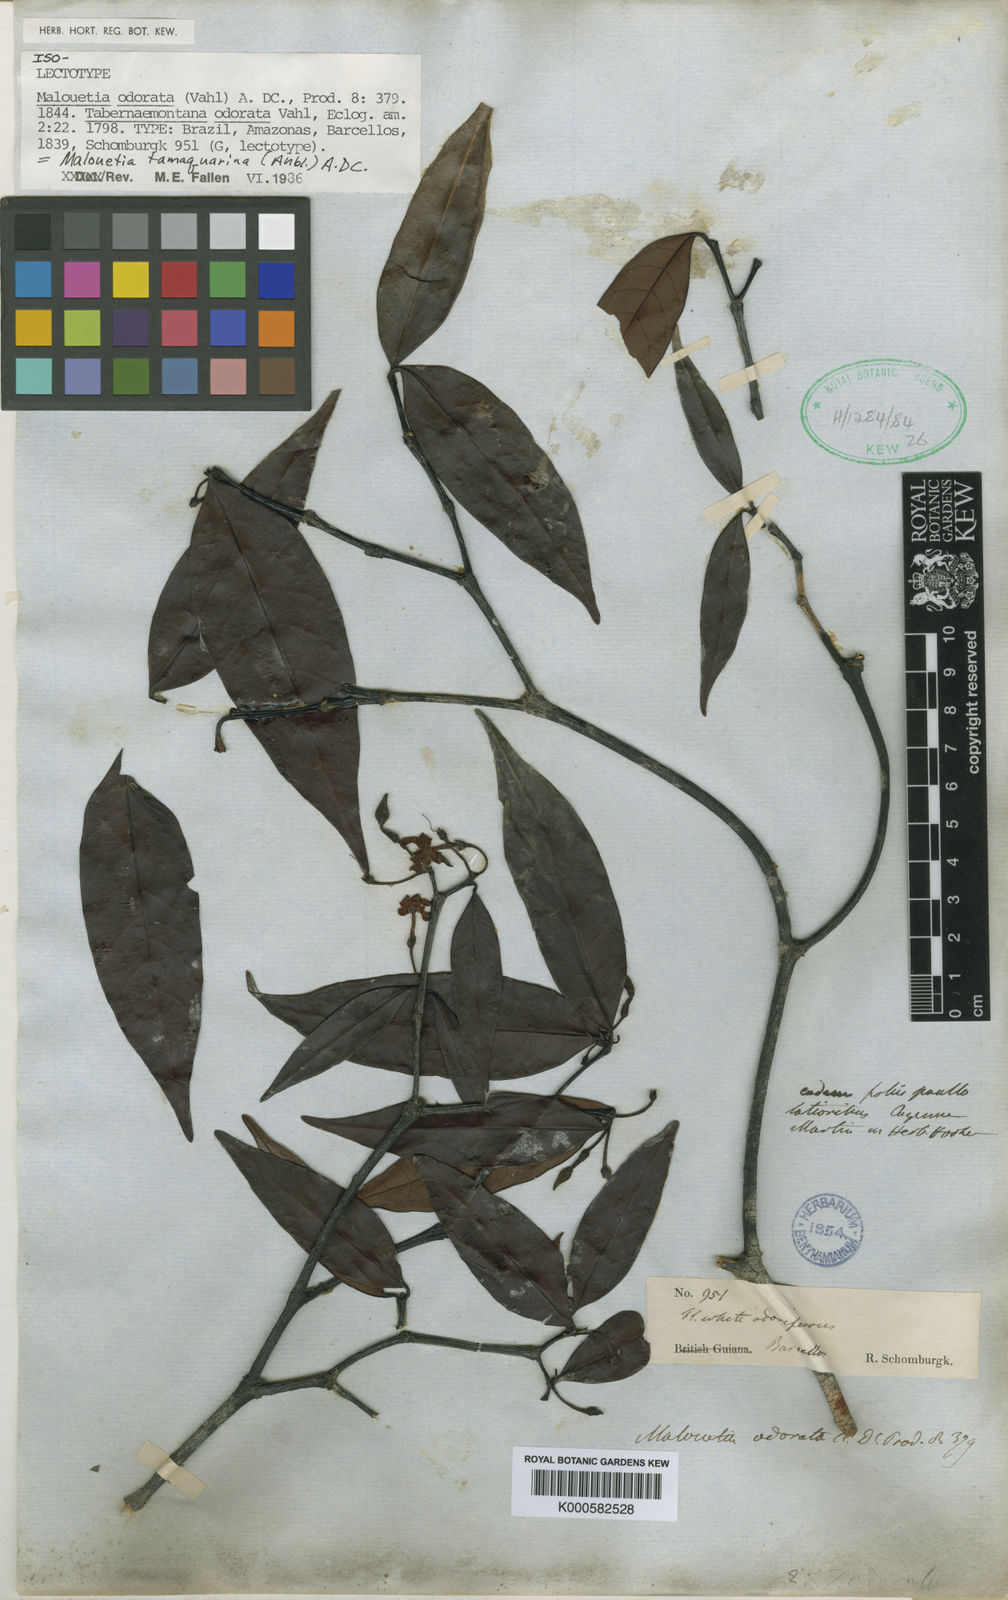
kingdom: Plantae
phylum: Tracheophyta
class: Magnoliopsida
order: Gentianales
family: Apocynaceae
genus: Malouetia
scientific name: Malouetia tamaquarina
